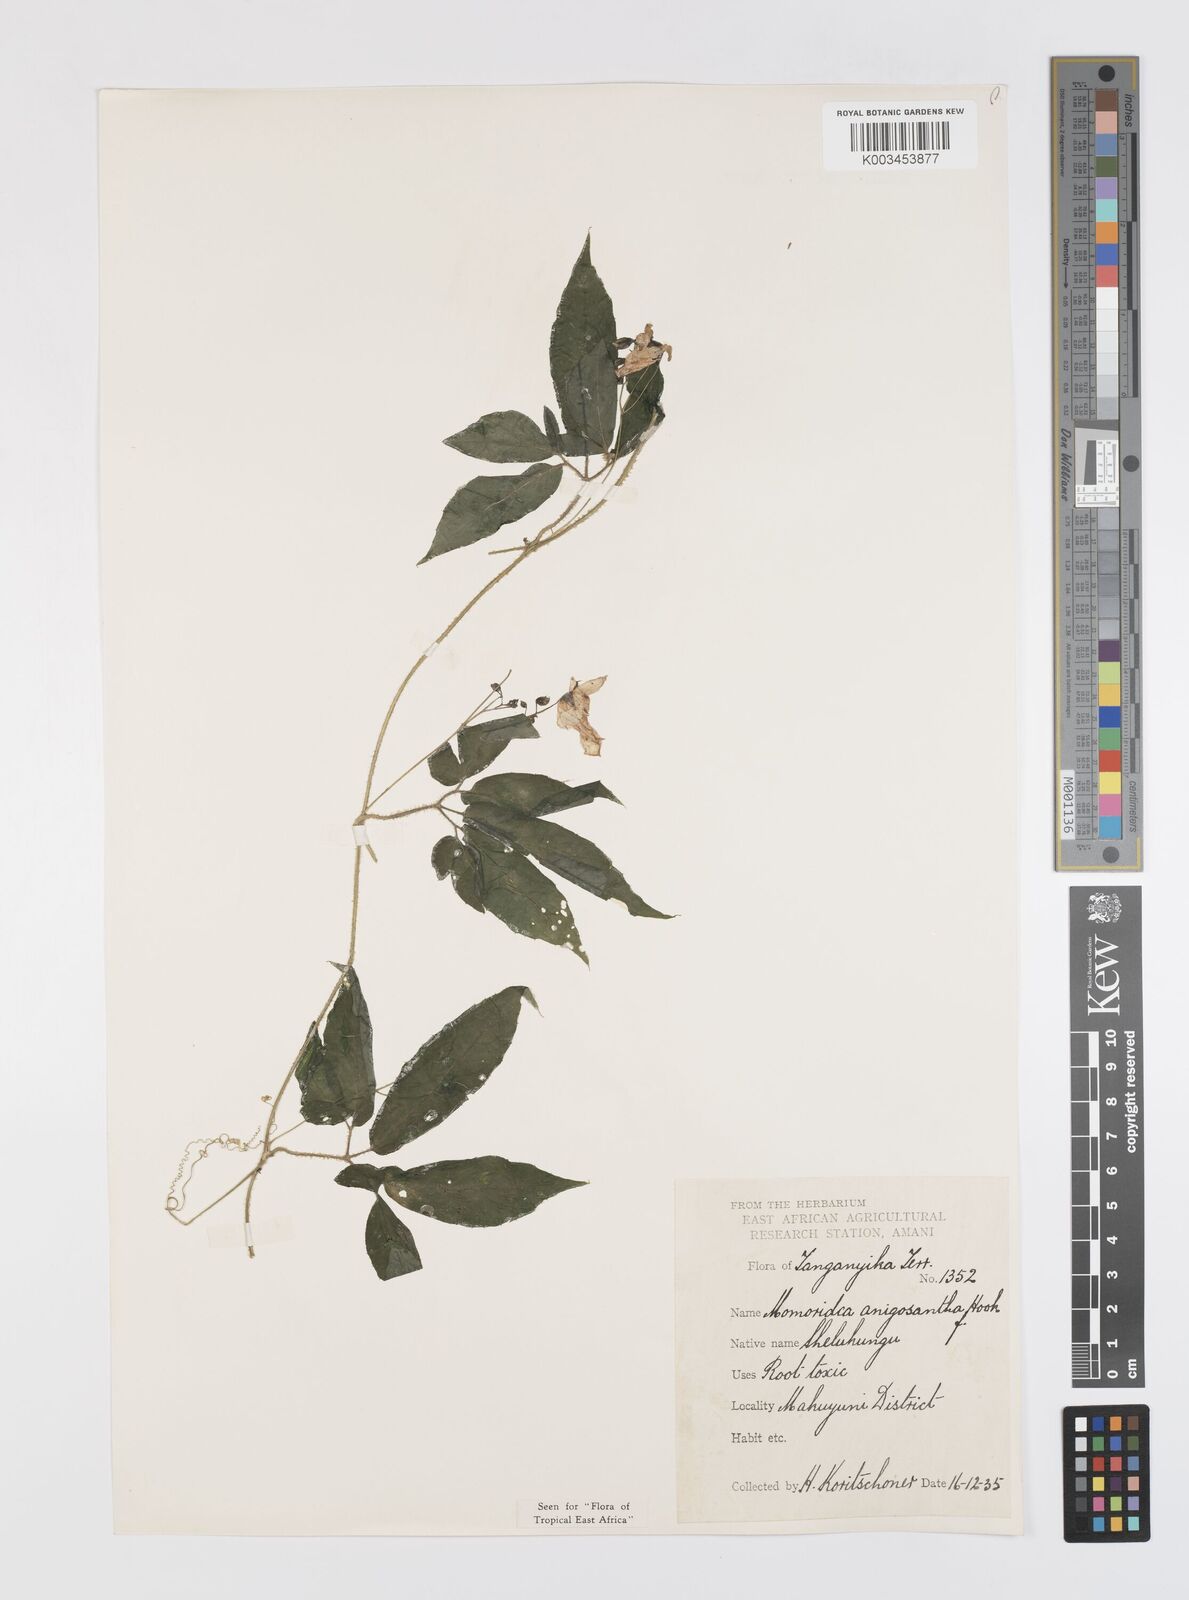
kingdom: Plantae
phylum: Tracheophyta
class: Magnoliopsida
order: Cucurbitales
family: Cucurbitaceae
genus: Momordica
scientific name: Momordica anigosantha
